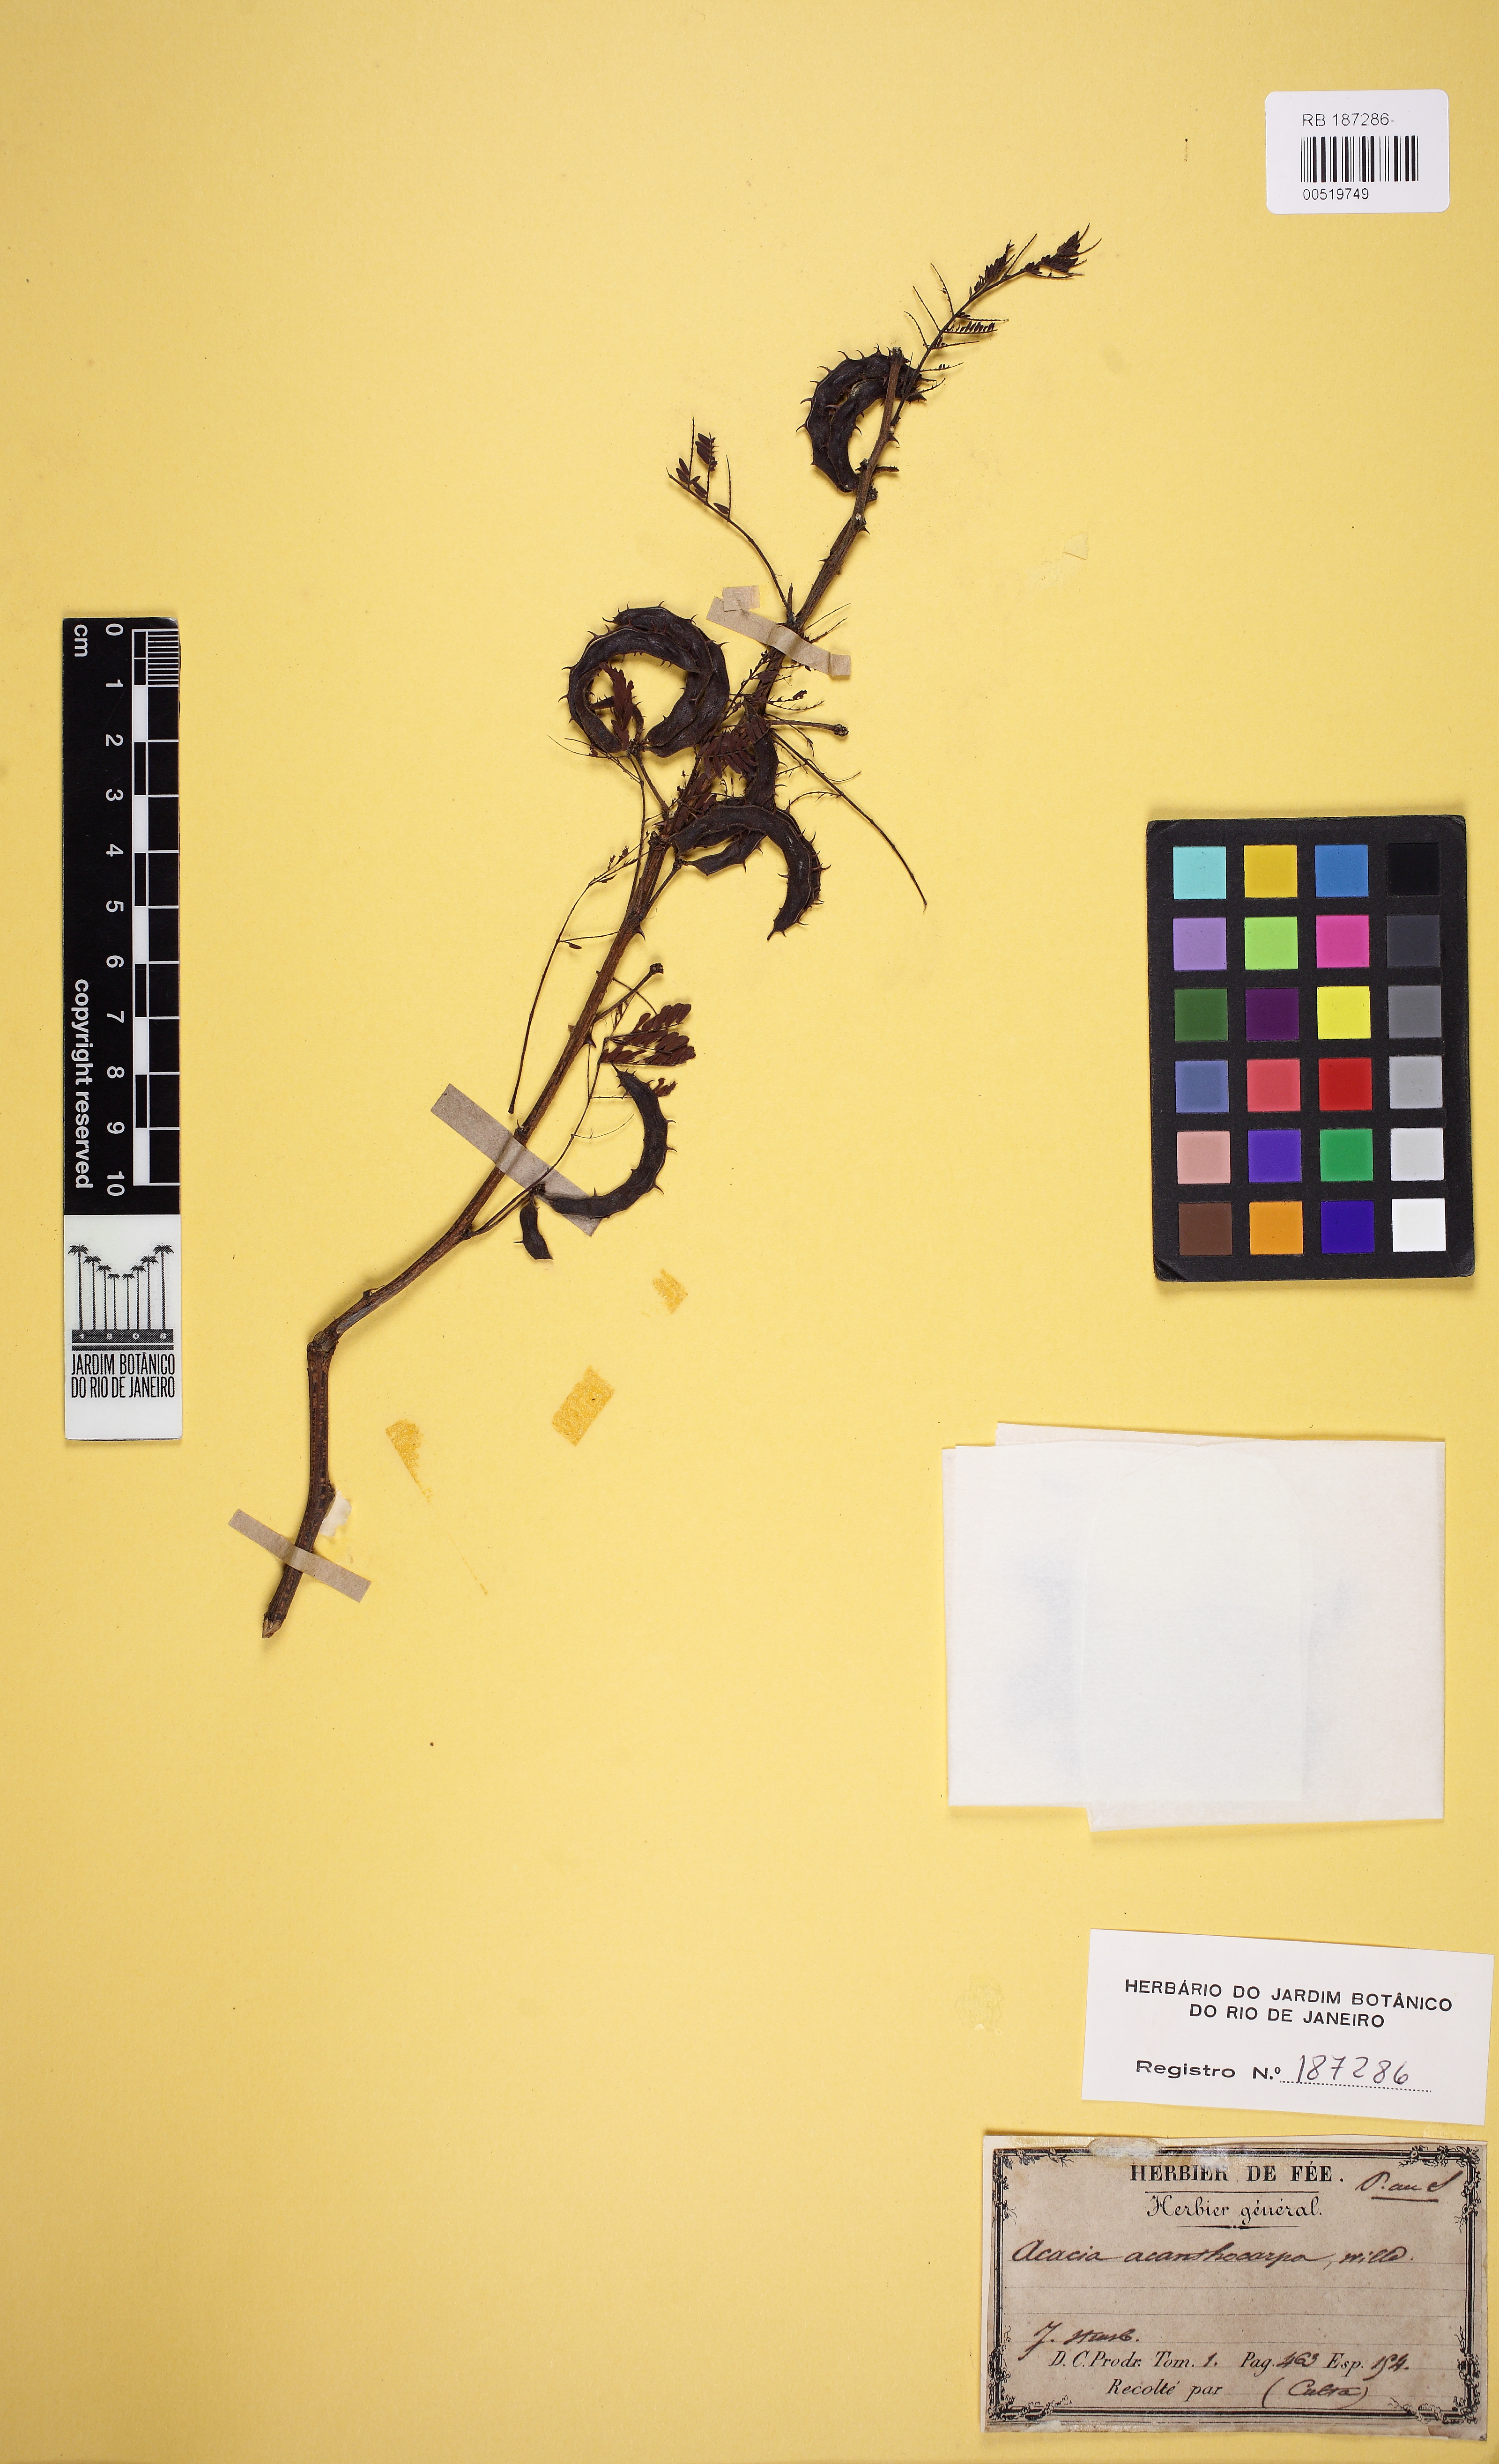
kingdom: Plantae
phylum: Tracheophyta
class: Magnoliopsida
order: Fabales
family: Fabaceae
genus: Mimosa
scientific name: Mimosa aculeaticarpa
